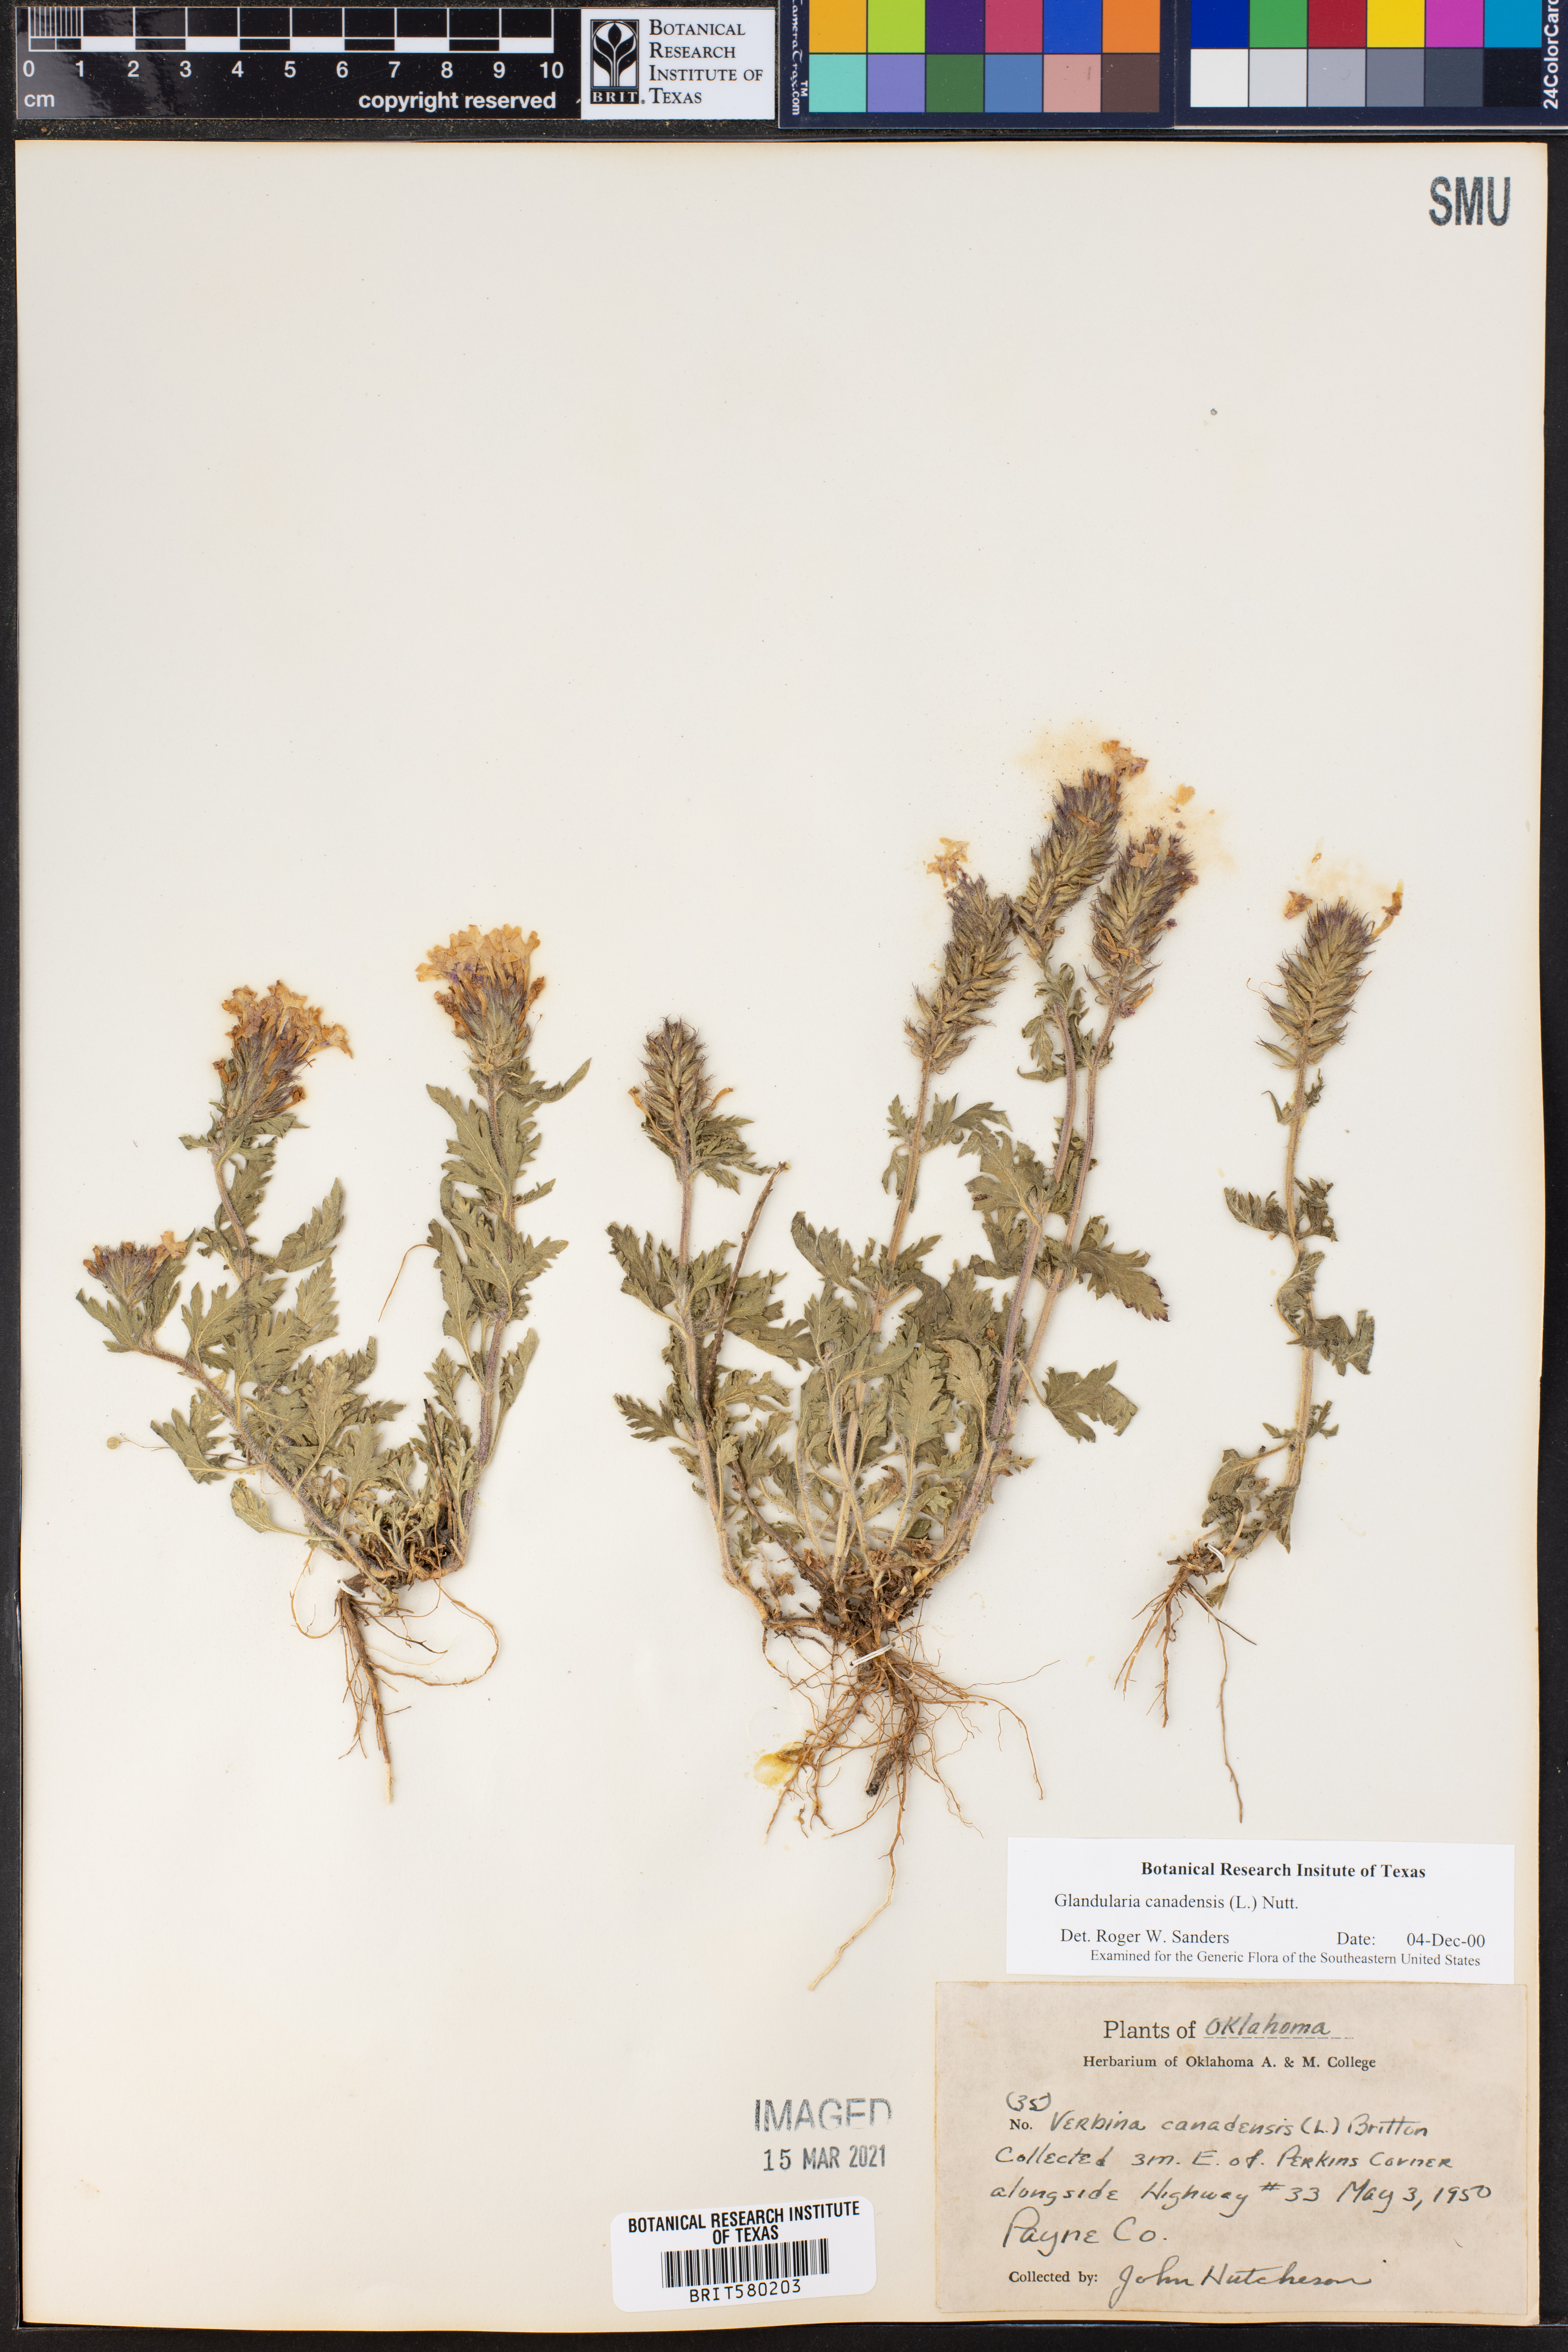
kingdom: Plantae
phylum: Tracheophyta
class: Magnoliopsida
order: Lamiales
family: Verbenaceae
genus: Verbena
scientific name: Verbena canadensis
